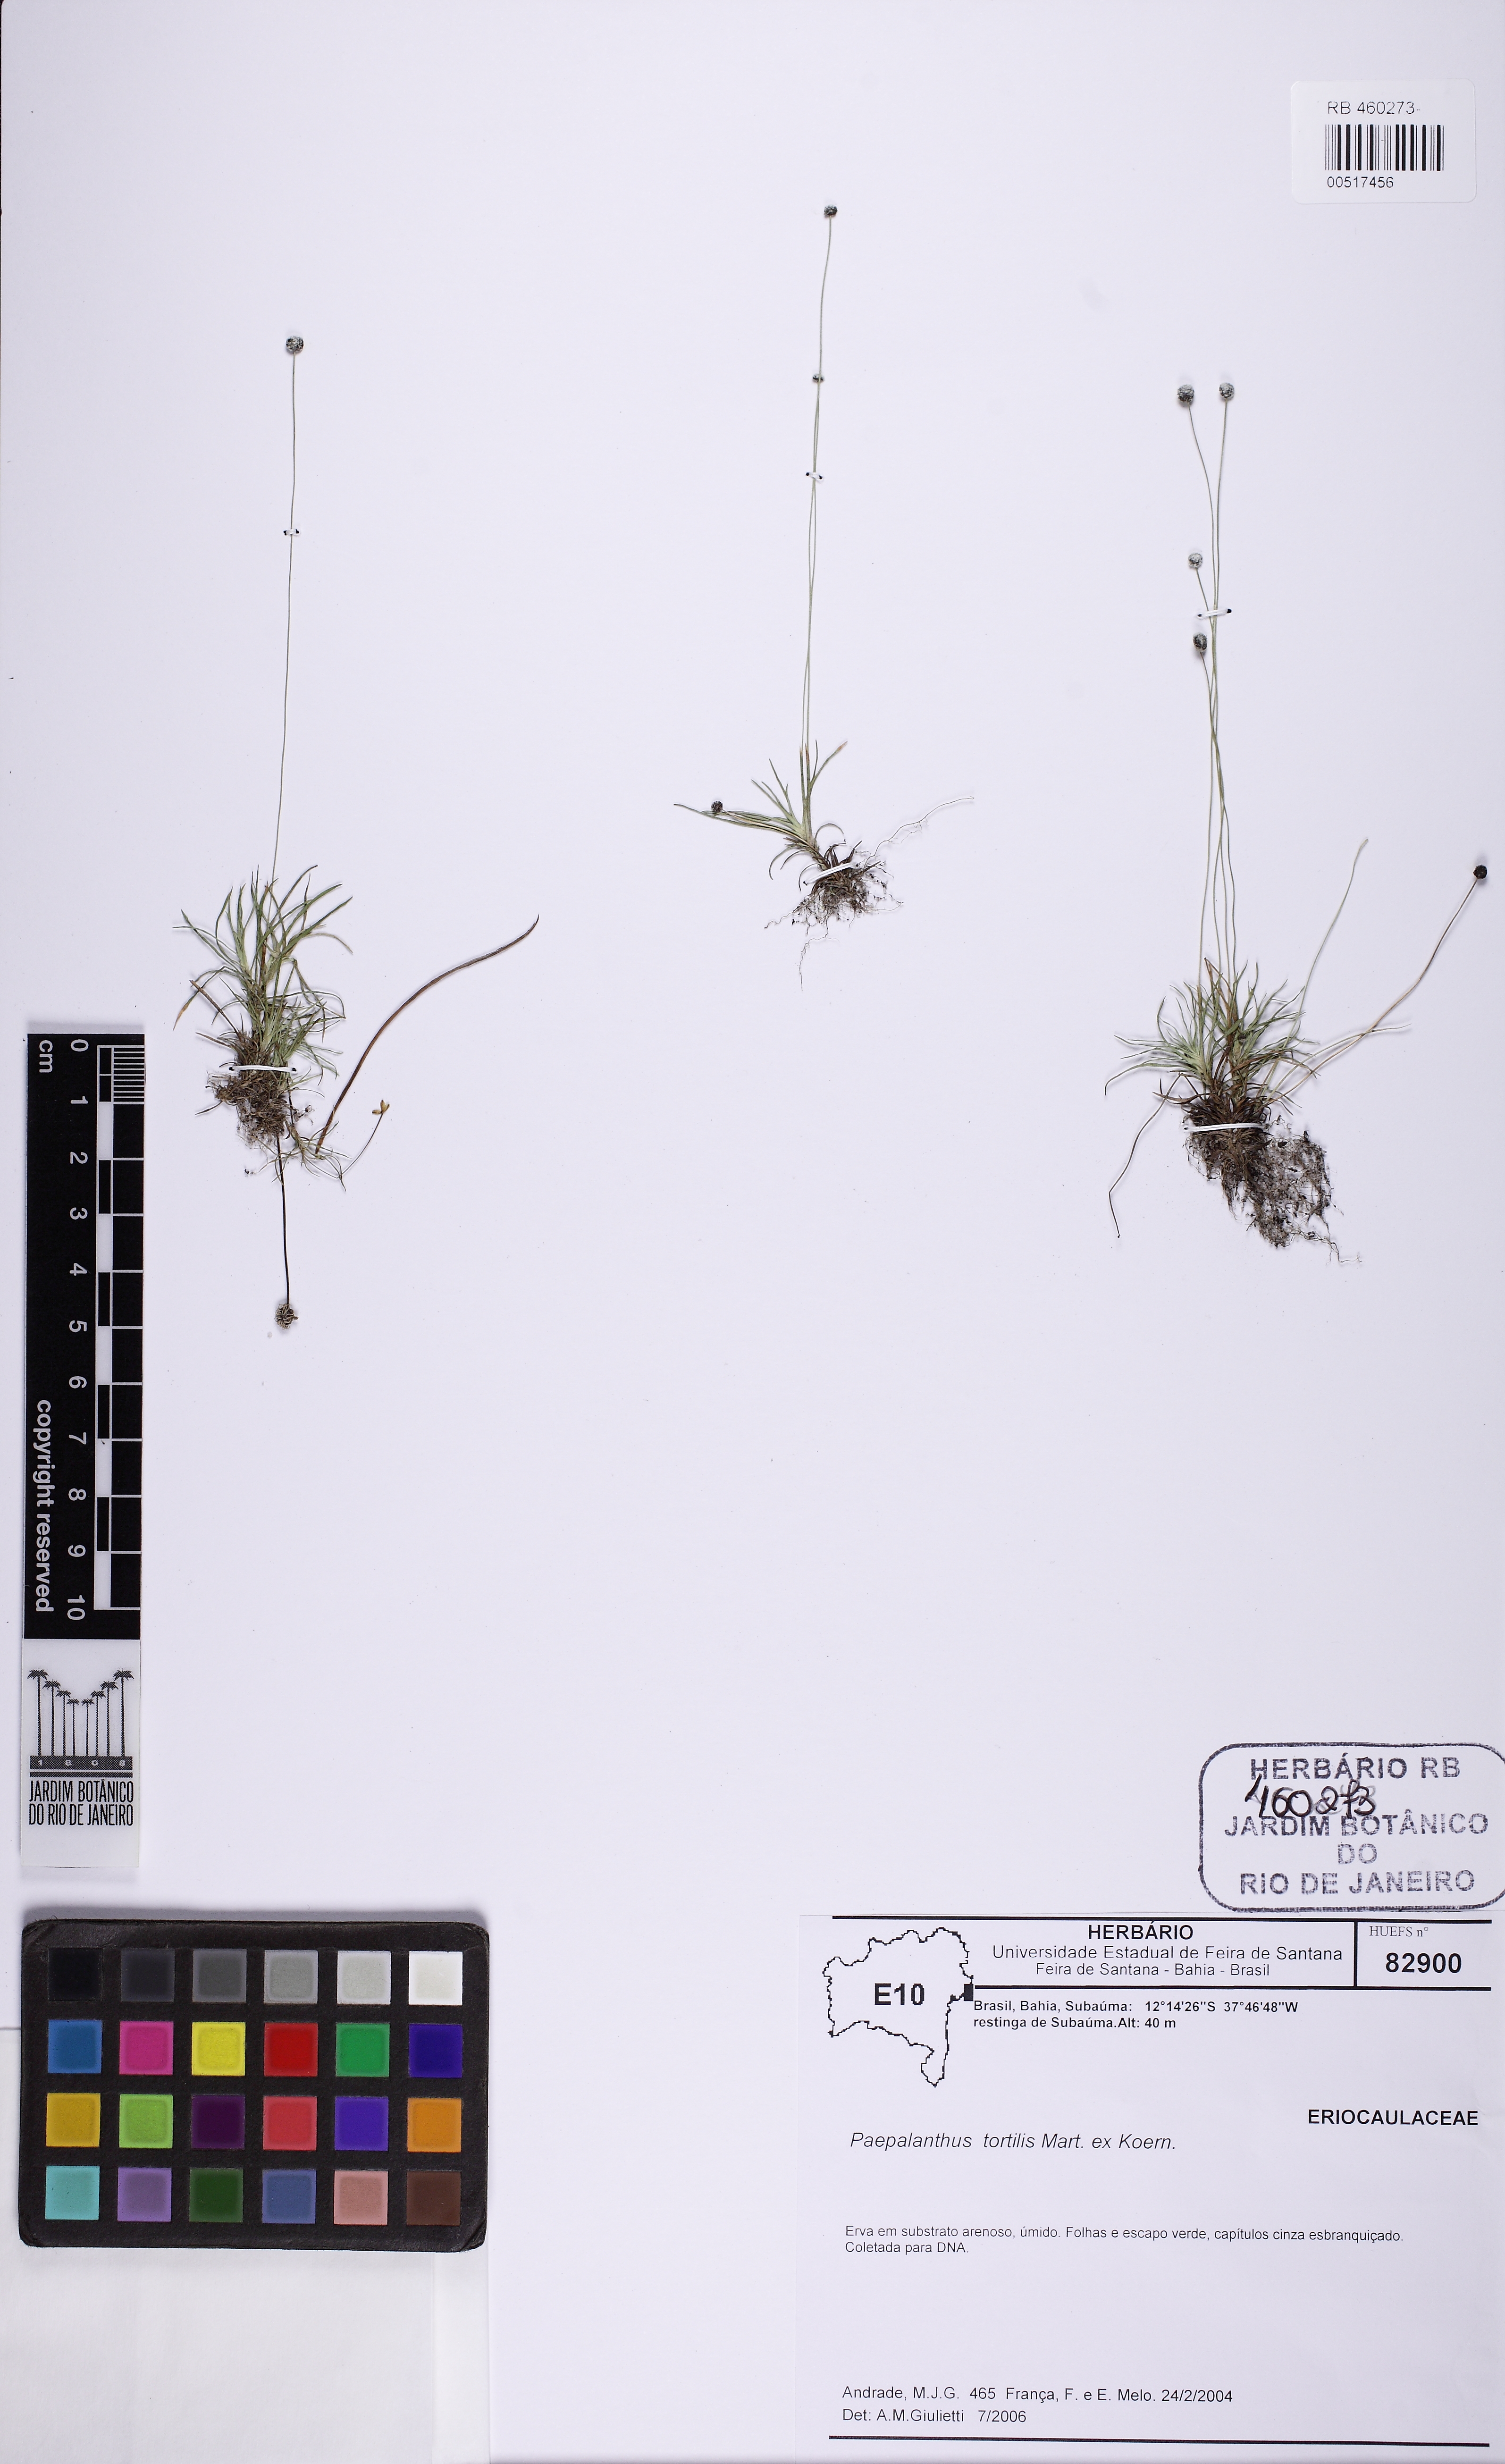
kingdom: Plantae
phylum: Tracheophyta
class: Liliopsida
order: Poales
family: Eriocaulaceae
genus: Paepalanthus
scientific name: Paepalanthus tortilis
